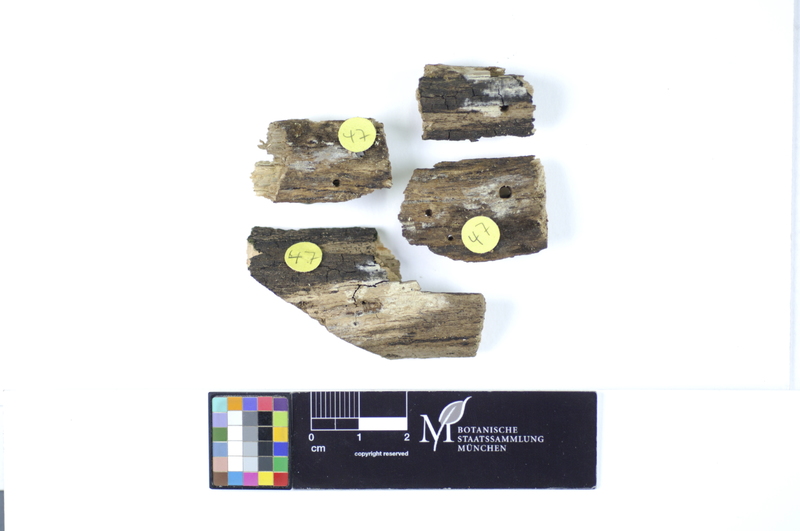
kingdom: Fungi
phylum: Basidiomycota
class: Agaricomycetes
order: Hymenochaetales
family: Rickenellaceae
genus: Peniophorella
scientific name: Peniophorella praetermissa
